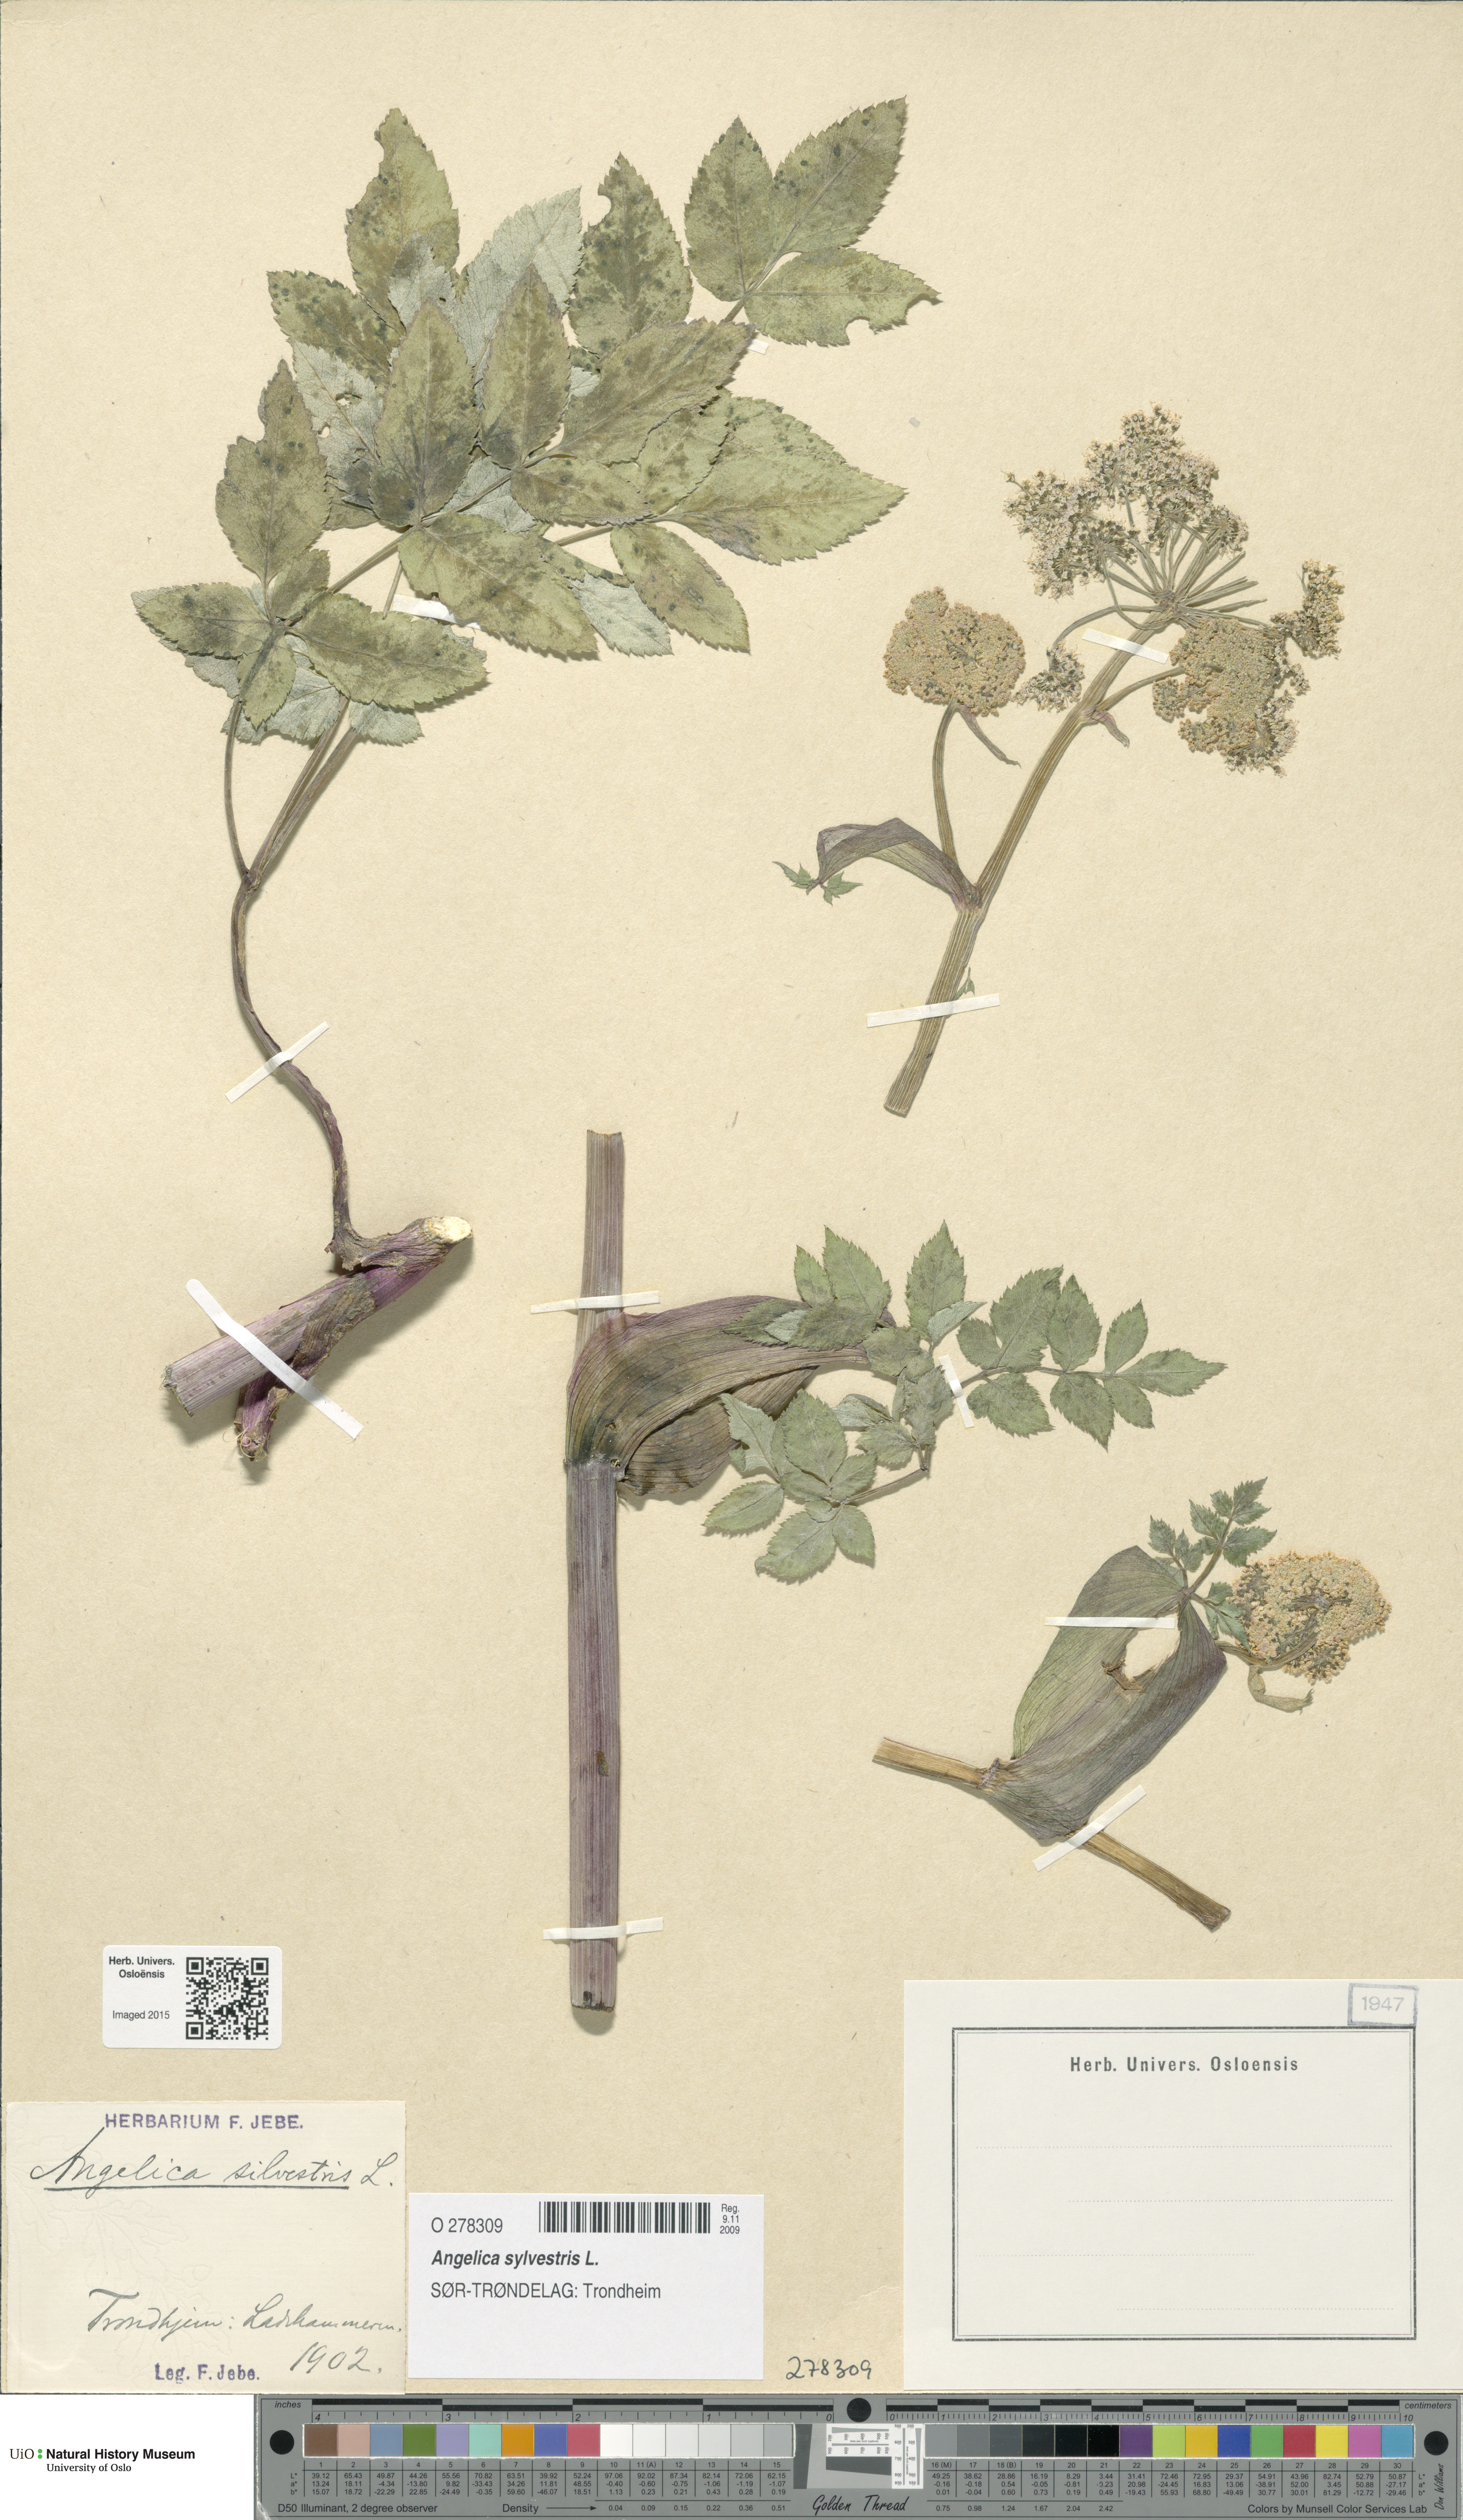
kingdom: Plantae
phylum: Tracheophyta
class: Magnoliopsida
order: Apiales
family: Apiaceae
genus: Angelica
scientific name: Angelica sylvestris
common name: Wild angelica
